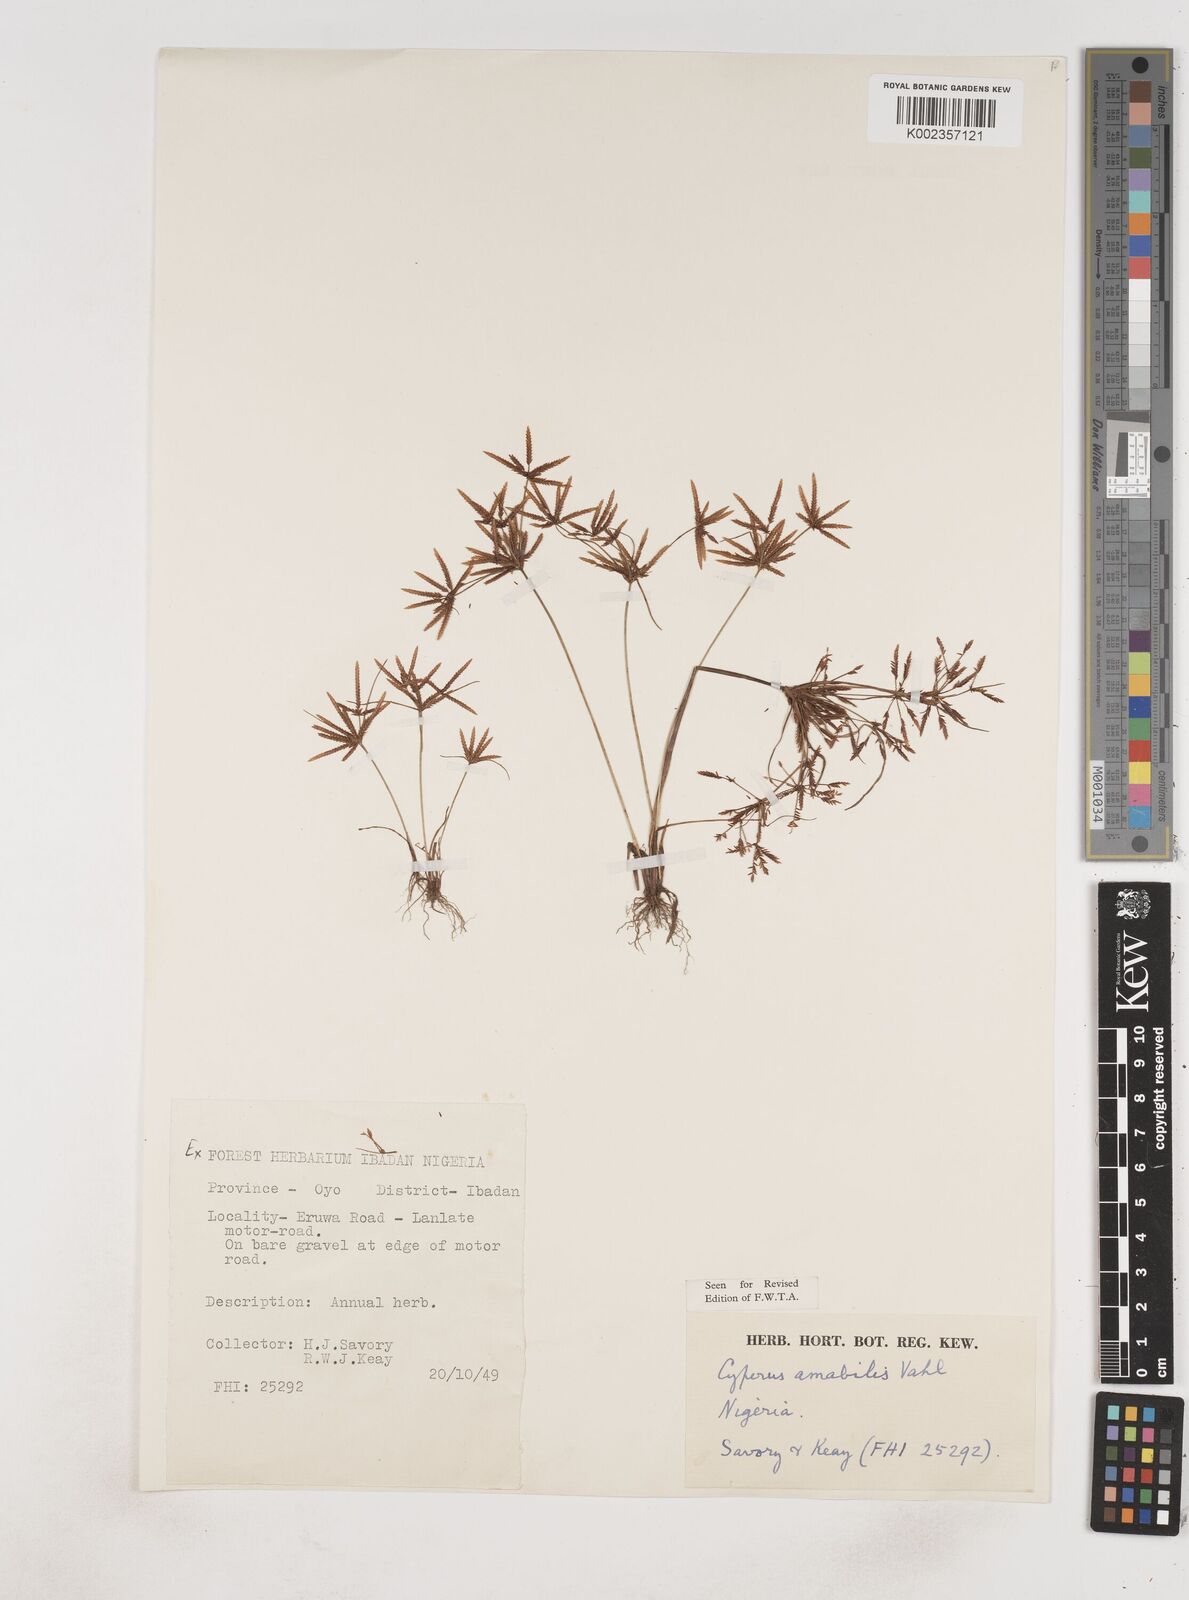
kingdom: Plantae
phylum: Tracheophyta
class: Liliopsida
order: Poales
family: Cyperaceae
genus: Cyperus
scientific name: Cyperus amabilis
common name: Foothill flat sedge
